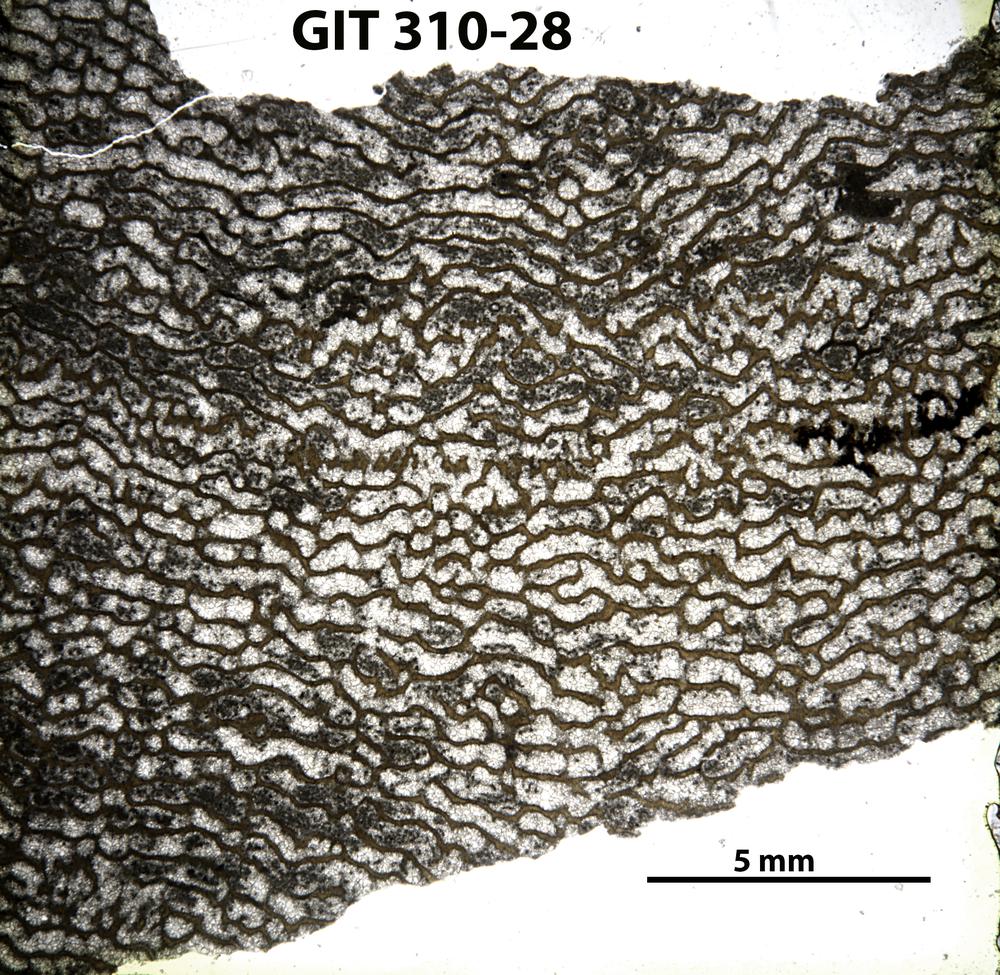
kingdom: Animalia
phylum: Porifera
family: Actinodictyidae
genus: Camptodictyon
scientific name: Camptodictyon
